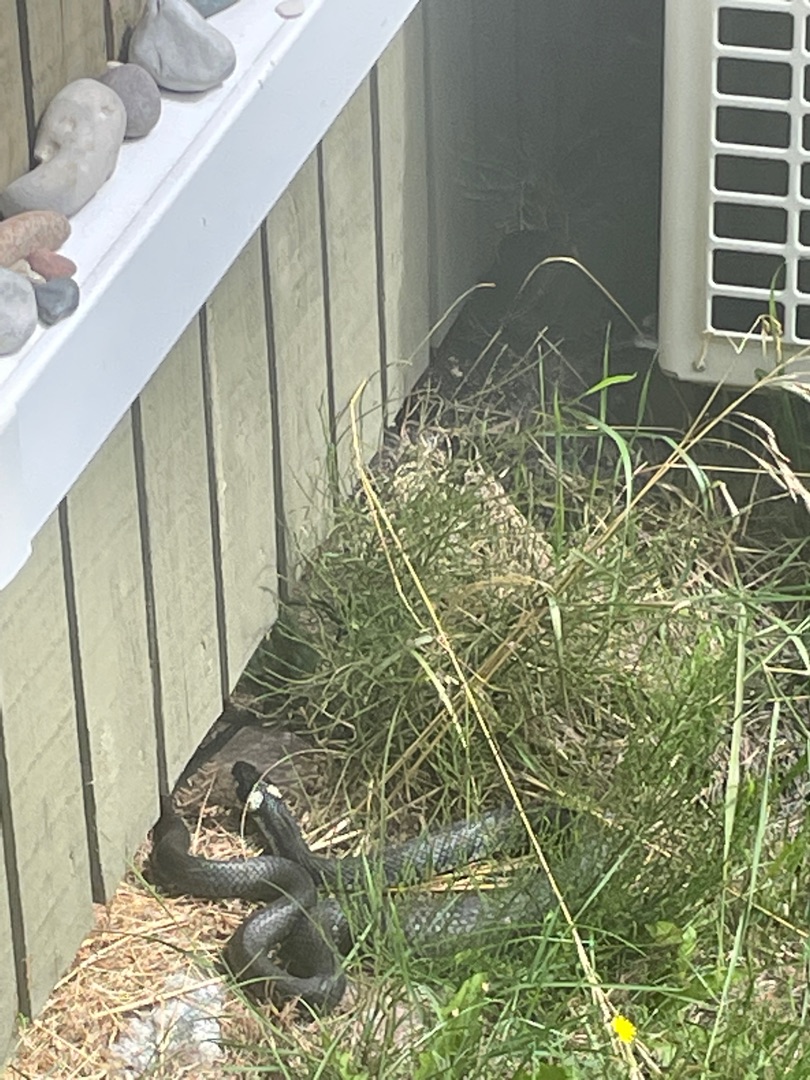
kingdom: Animalia
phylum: Chordata
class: Squamata
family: Colubridae
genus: Natrix
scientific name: Natrix natrix
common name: Snog
